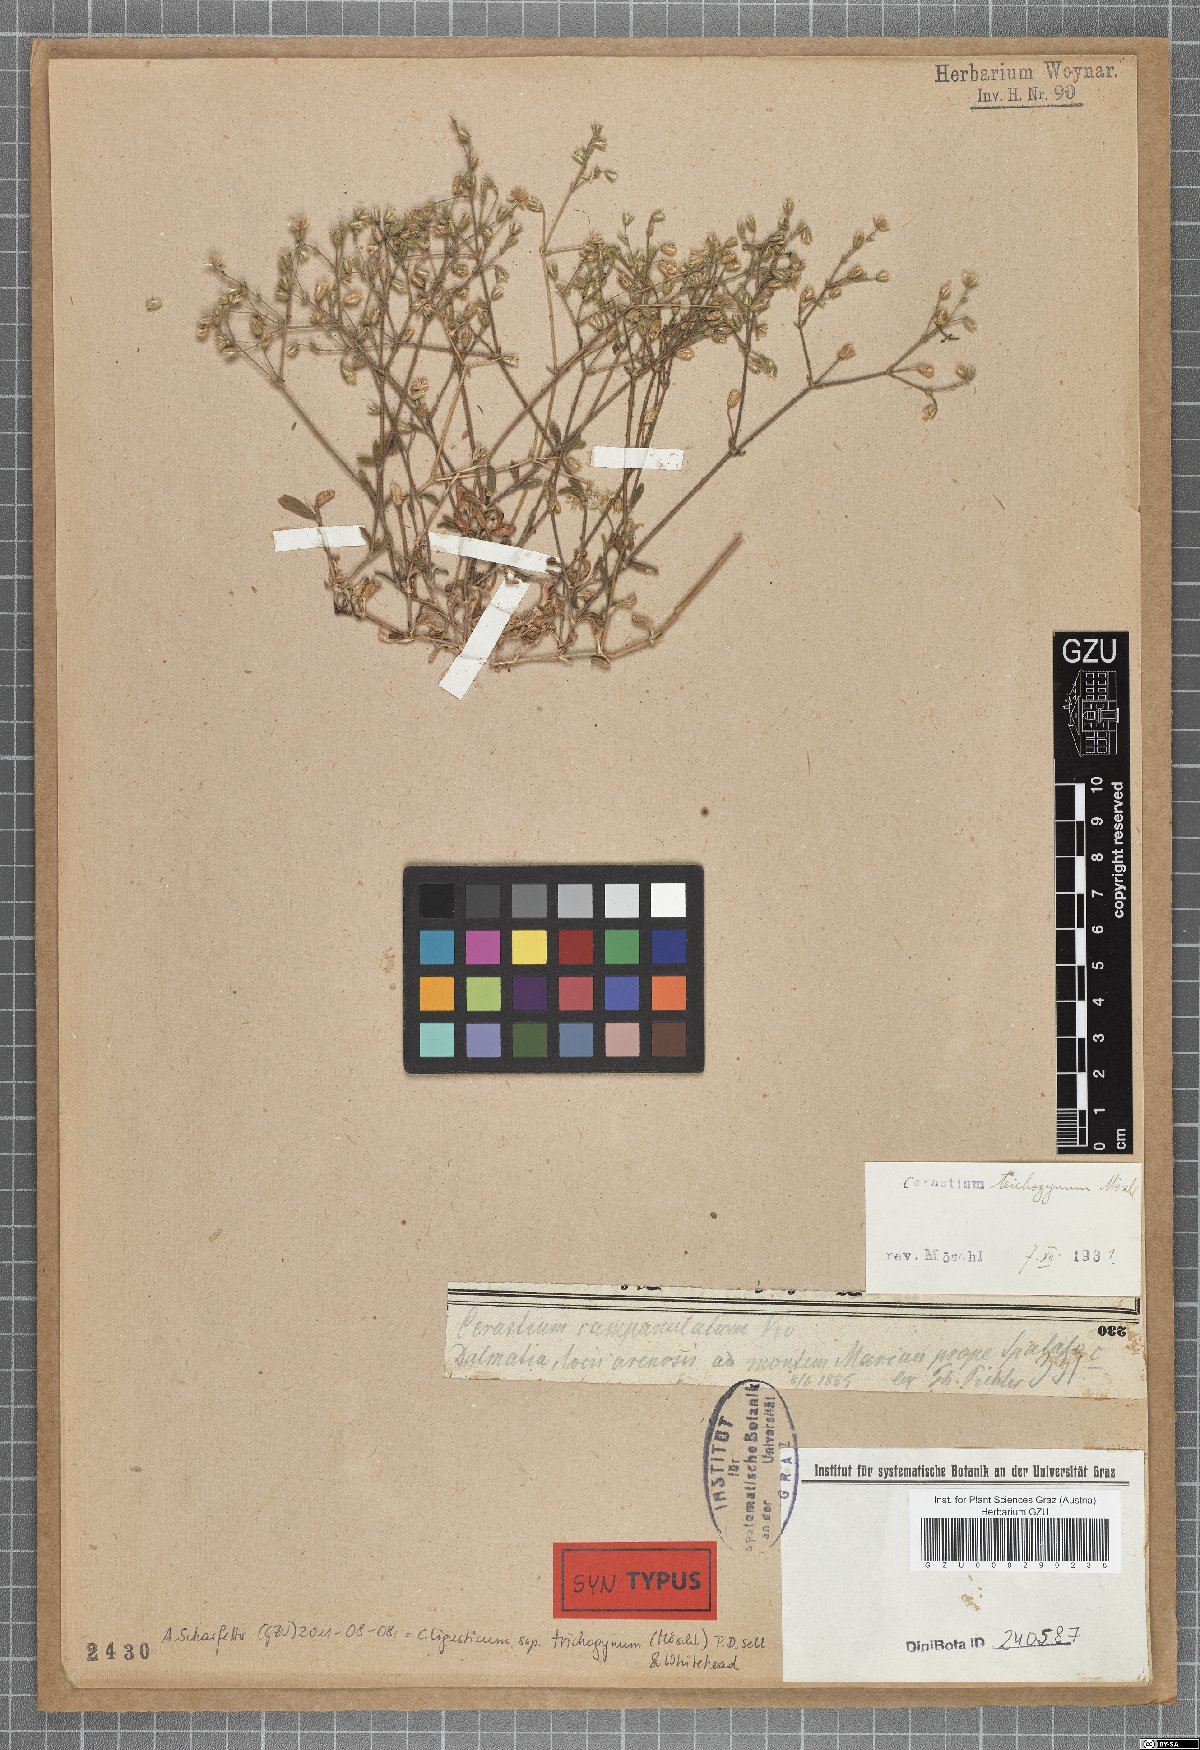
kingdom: Plantae
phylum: Tracheophyta
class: Magnoliopsida
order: Caryophyllales
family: Caryophyllaceae
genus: Cerastium
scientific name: Cerastium ligusticum
